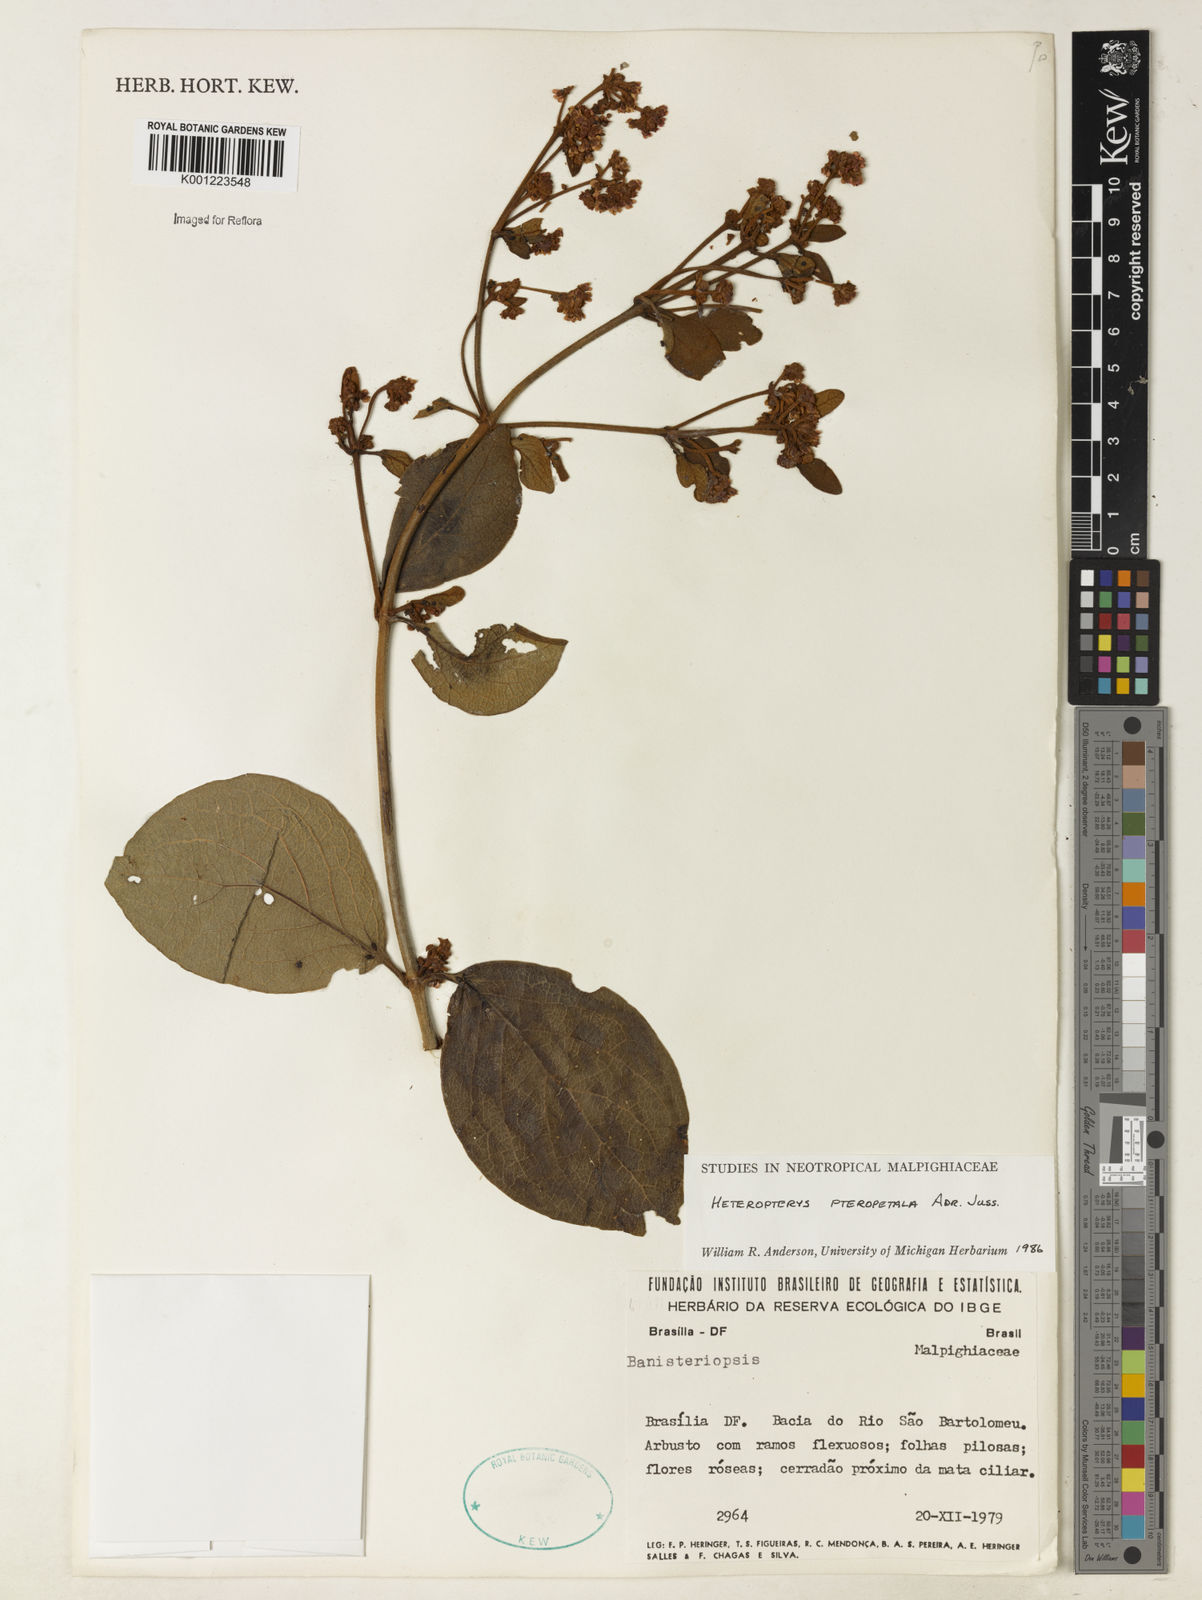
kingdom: Plantae
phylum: Tracheophyta
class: Magnoliopsida
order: Malpighiales
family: Malpighiaceae
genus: Heteropterys
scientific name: Heteropterys pteropetala
